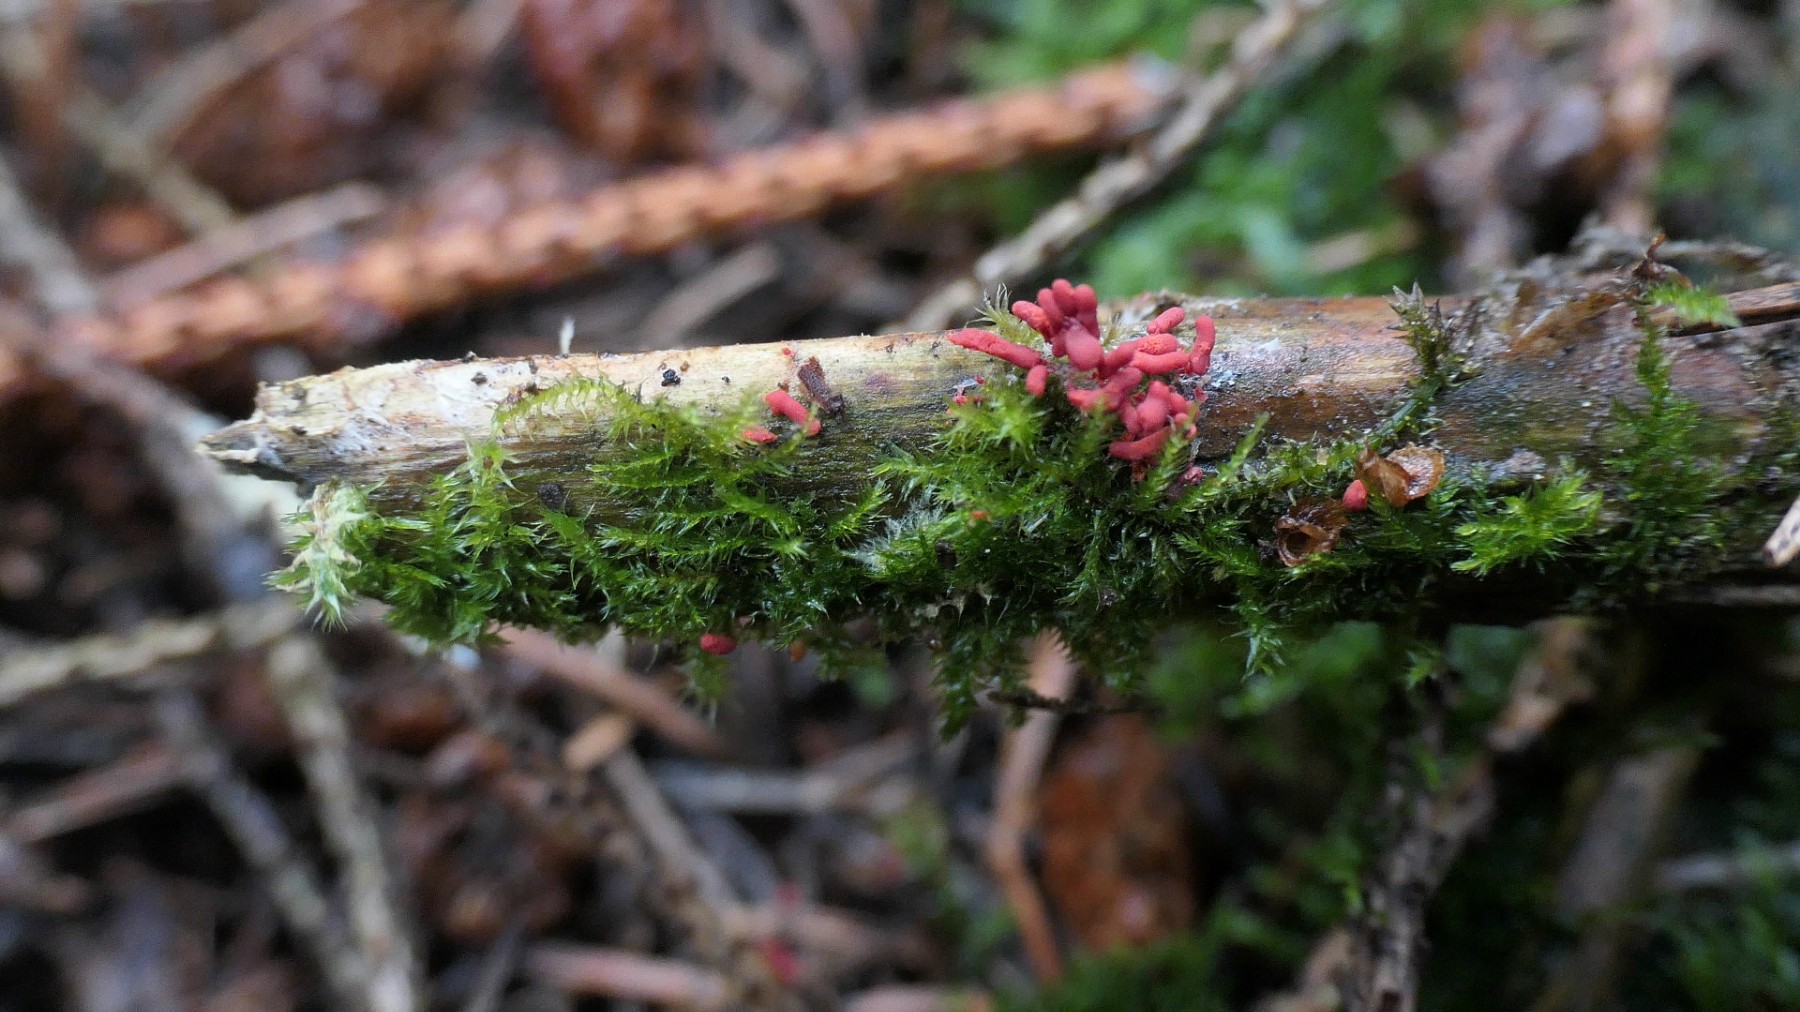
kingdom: Protozoa
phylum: Mycetozoa
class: Myxomycetes
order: Trichiales
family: Arcyriaceae
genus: Arcyria
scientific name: Arcyria denudata
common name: karminrød skålsvøb
